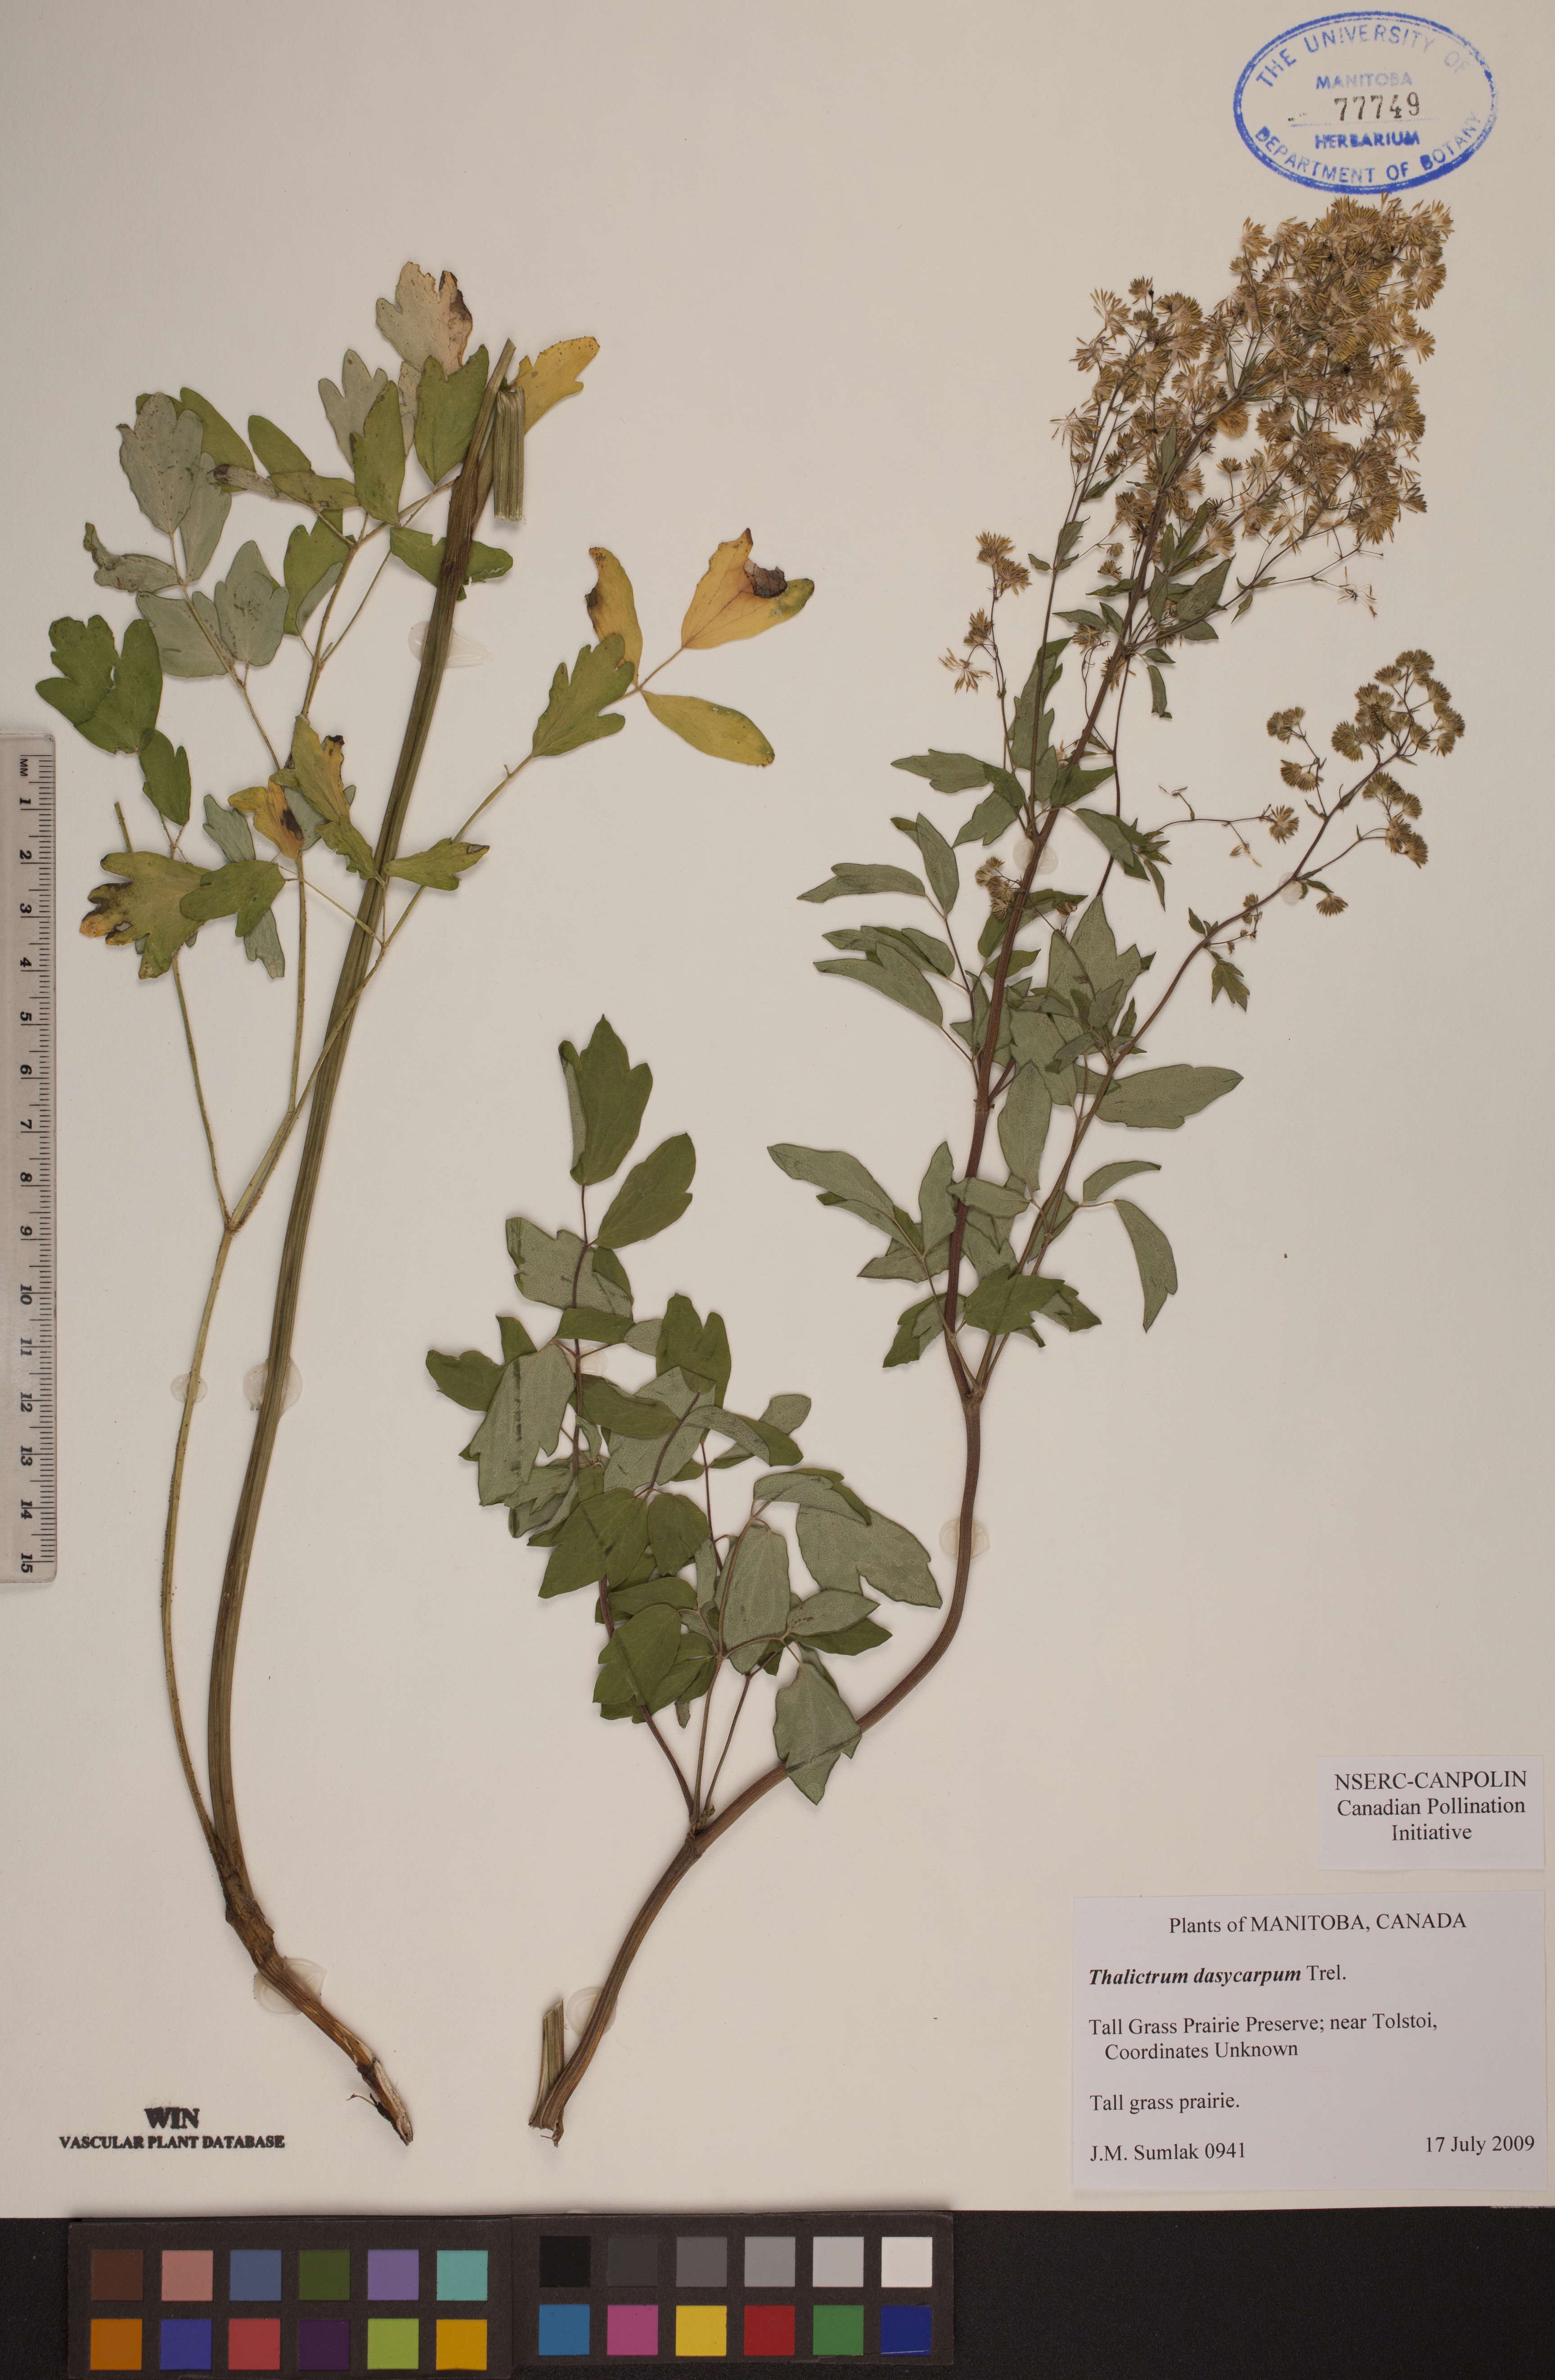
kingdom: Plantae
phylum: Tracheophyta
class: Magnoliopsida
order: Ranunculales
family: Ranunculaceae
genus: Thalictrum
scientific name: Thalictrum dasycarpum
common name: Purple meadow-rue
